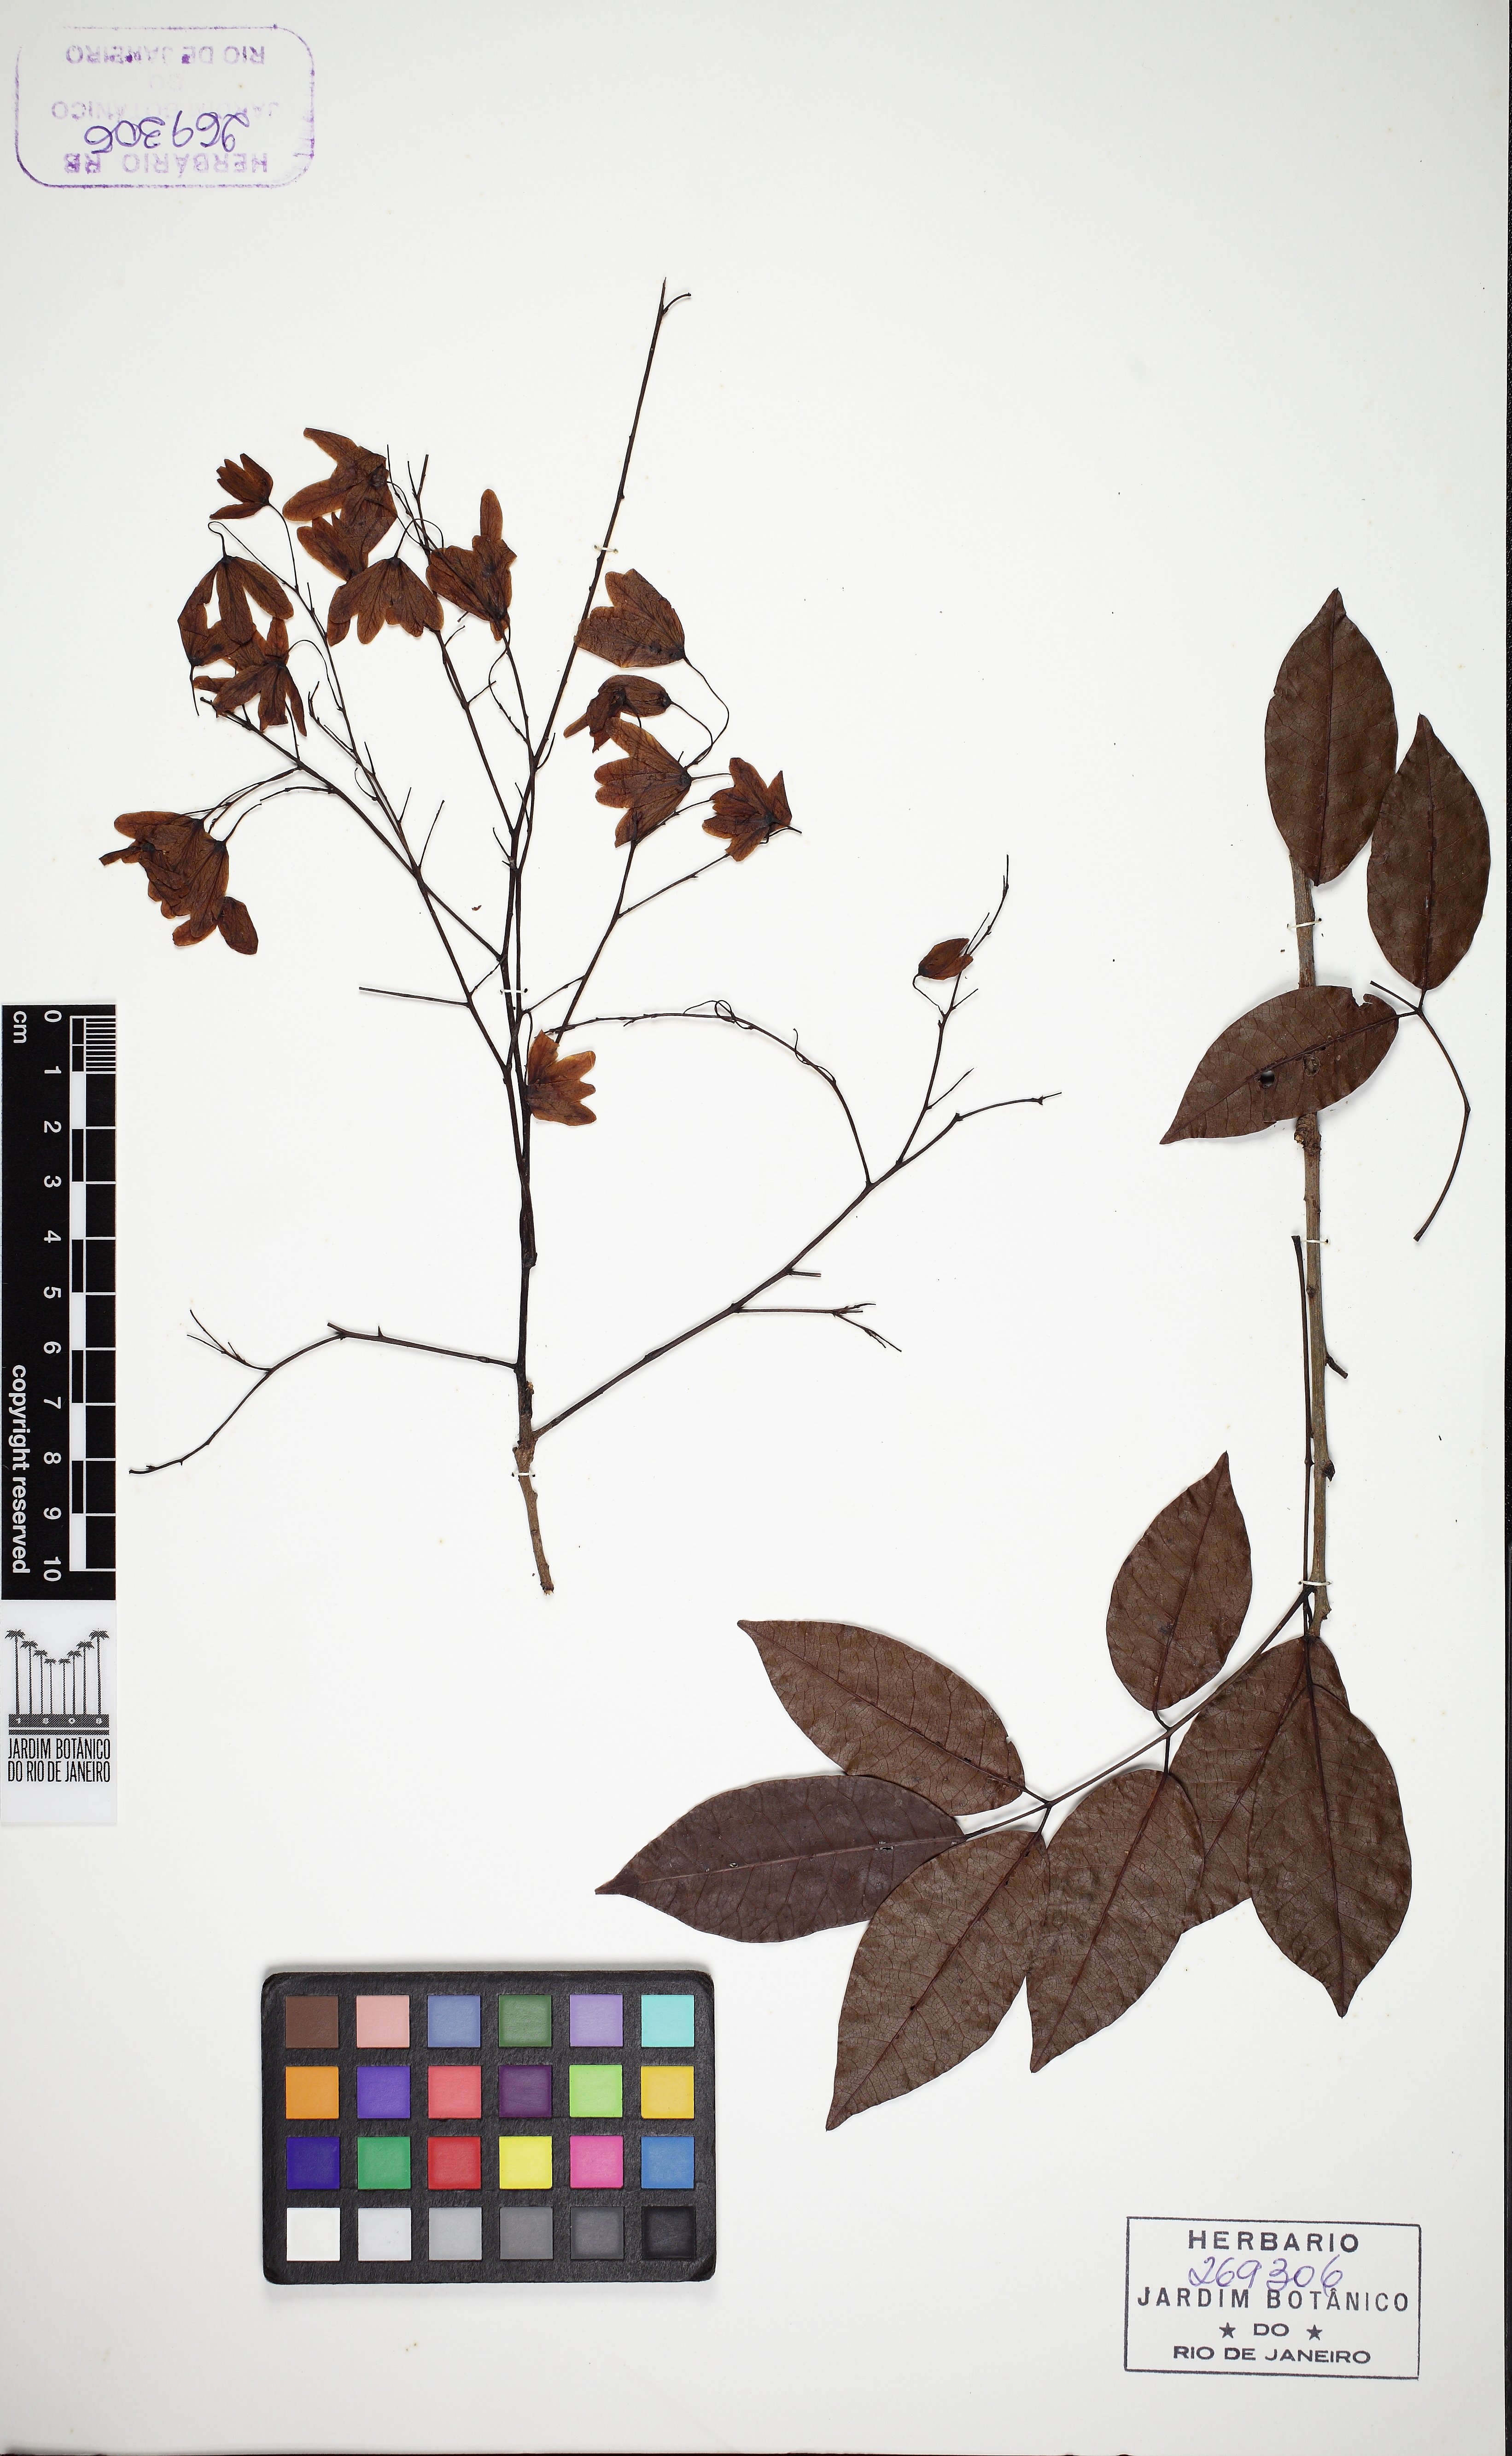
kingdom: Plantae
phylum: Tracheophyta
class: Magnoliopsida
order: Sapindales
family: Anacardiaceae
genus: Antrocaryon
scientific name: Antrocaryon
